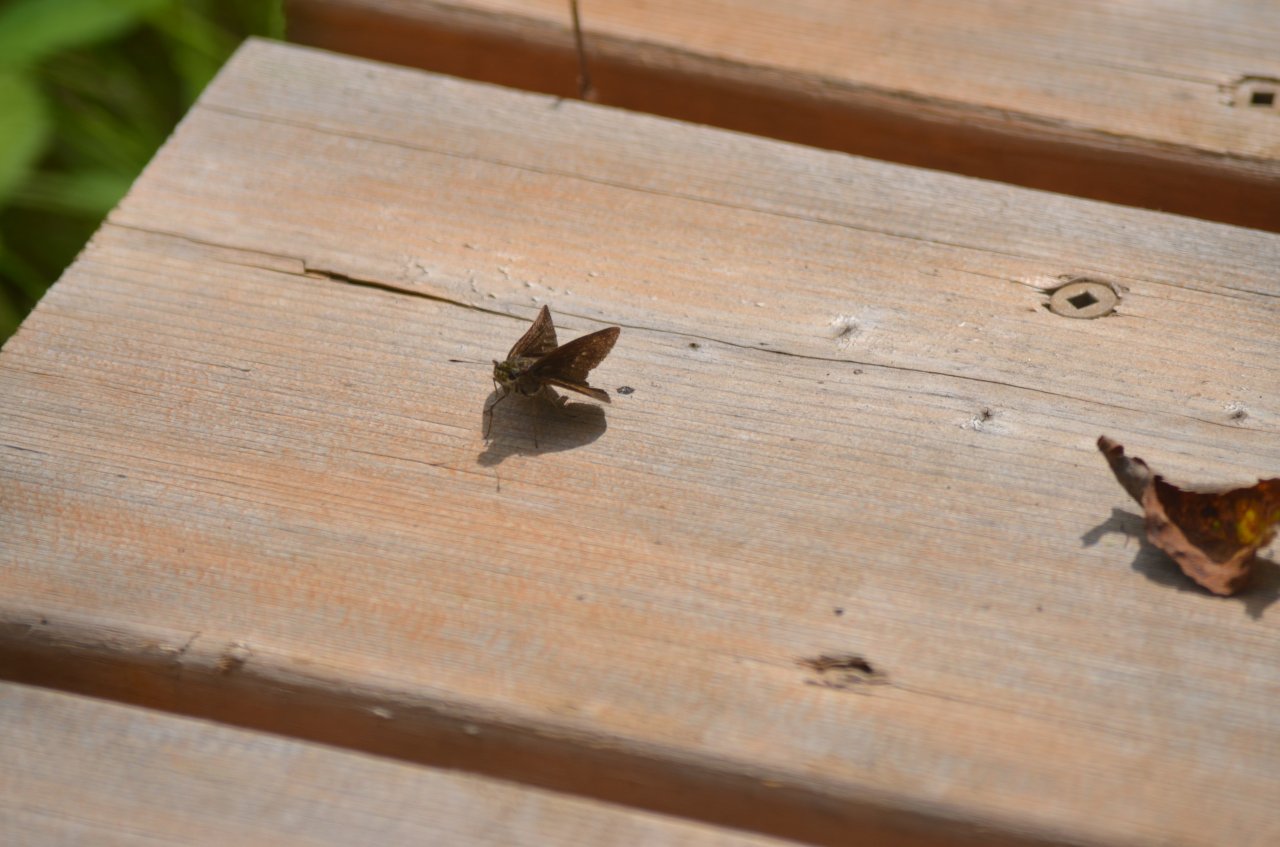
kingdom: Animalia
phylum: Arthropoda
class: Insecta
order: Lepidoptera
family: Hesperiidae
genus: Euphyes
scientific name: Euphyes vestris
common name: Dun Skipper
